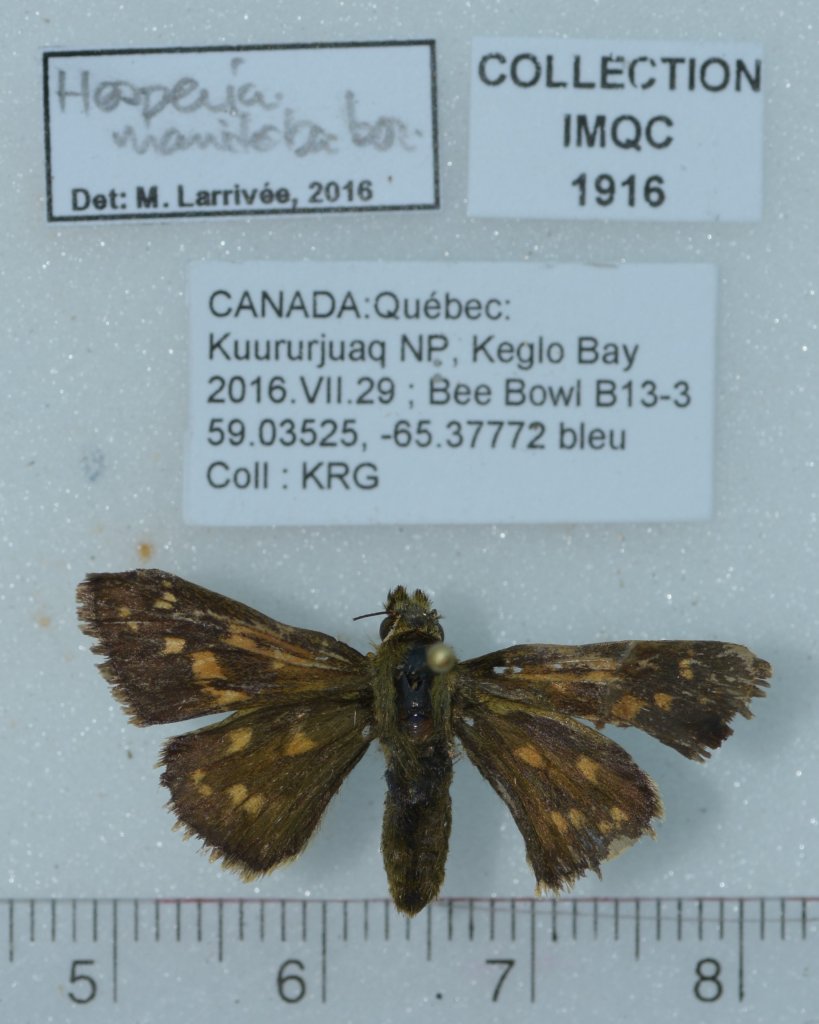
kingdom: Animalia
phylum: Arthropoda
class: Insecta
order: Lepidoptera
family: Hesperiidae
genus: Hesperia
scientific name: Hesperia comma
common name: Common Branded Skipper
